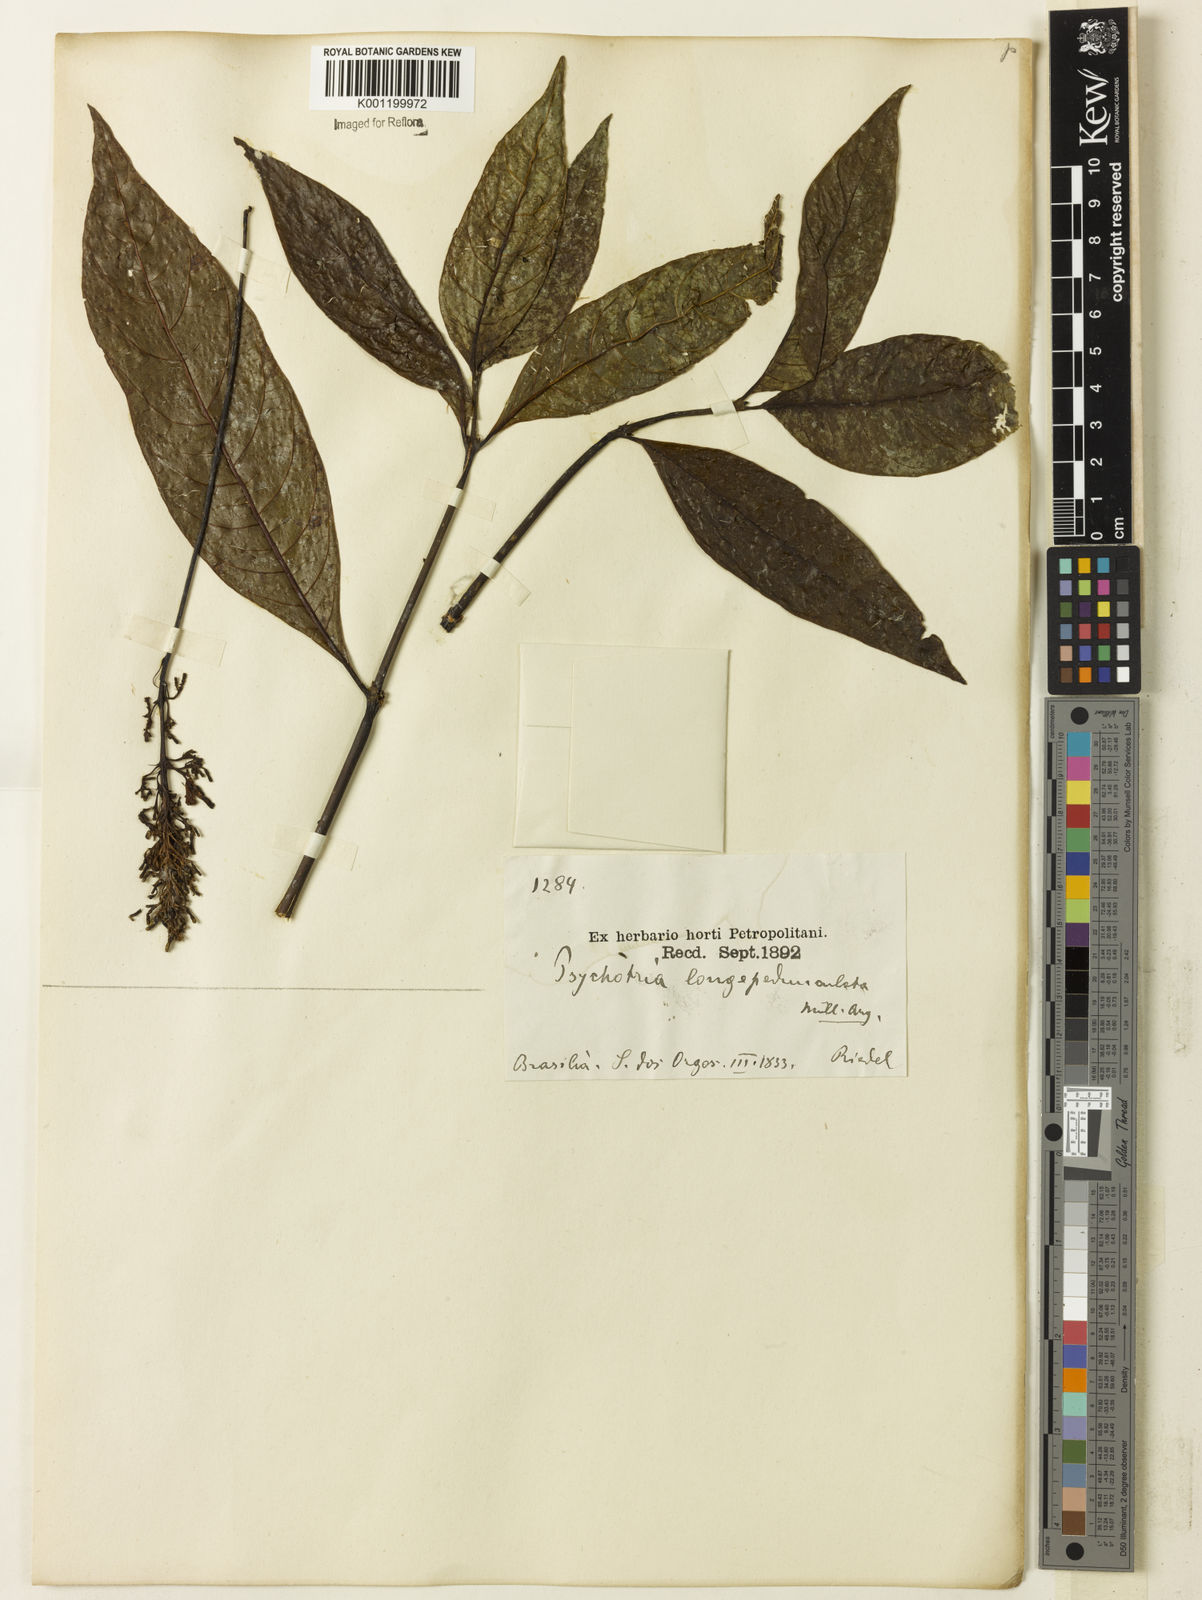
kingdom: Plantae
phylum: Tracheophyta
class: Magnoliopsida
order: Gentianales
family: Rubiaceae
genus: Palicourea
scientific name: Palicourea longipedunculata
